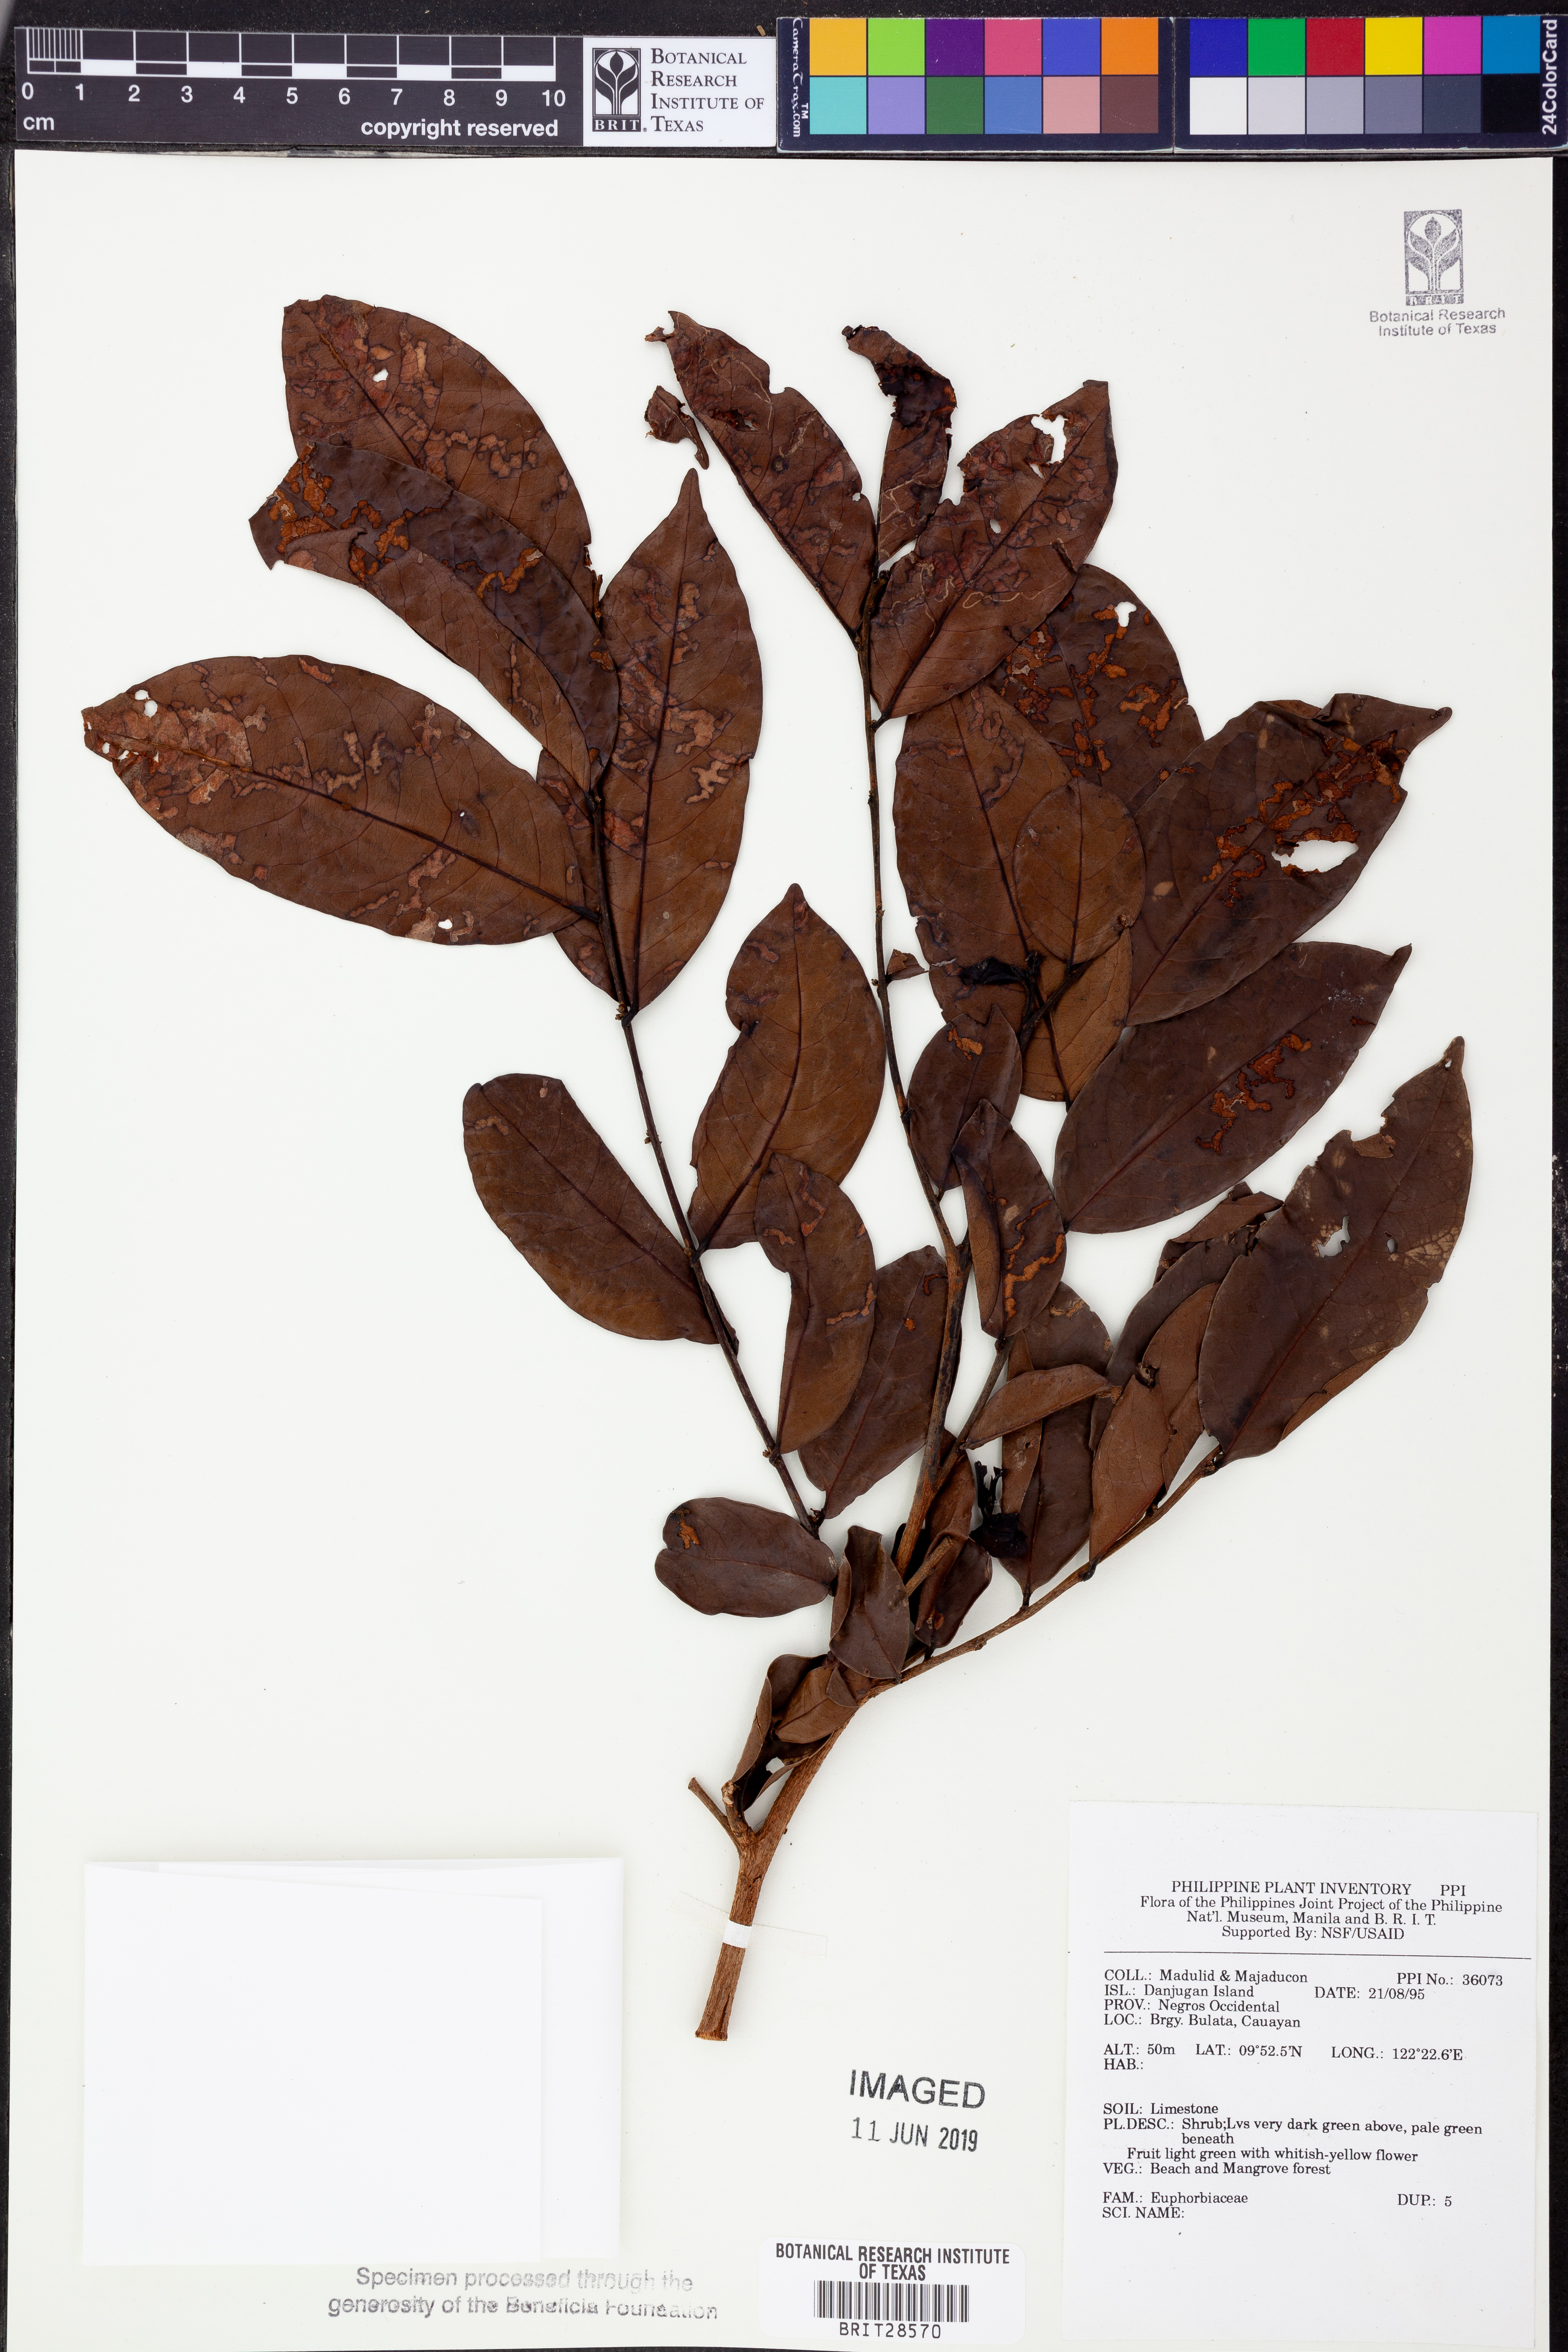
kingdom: Plantae
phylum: Tracheophyta
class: Magnoliopsida
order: Malpighiales
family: Euphorbiaceae
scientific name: Euphorbiaceae
